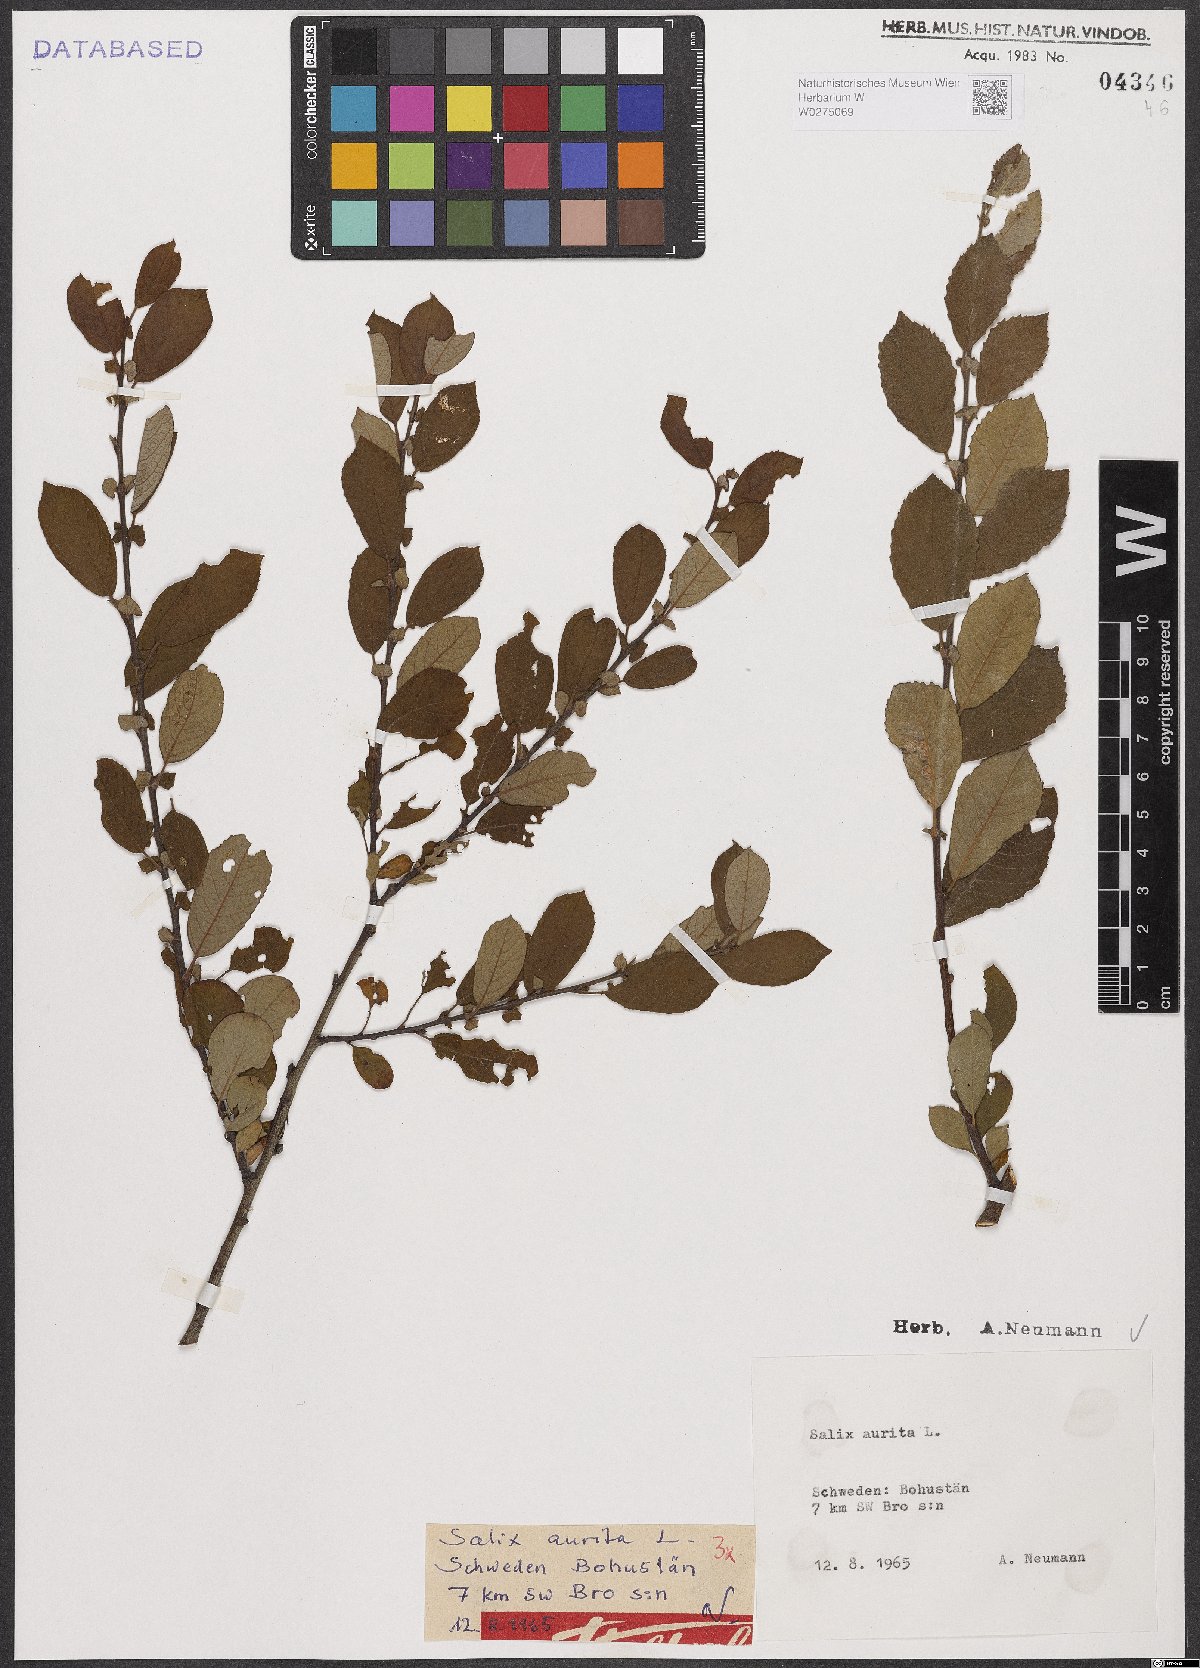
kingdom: Plantae
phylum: Tracheophyta
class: Magnoliopsida
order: Malpighiales
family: Salicaceae
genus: Salix
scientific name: Salix aurita
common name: Eared willow
